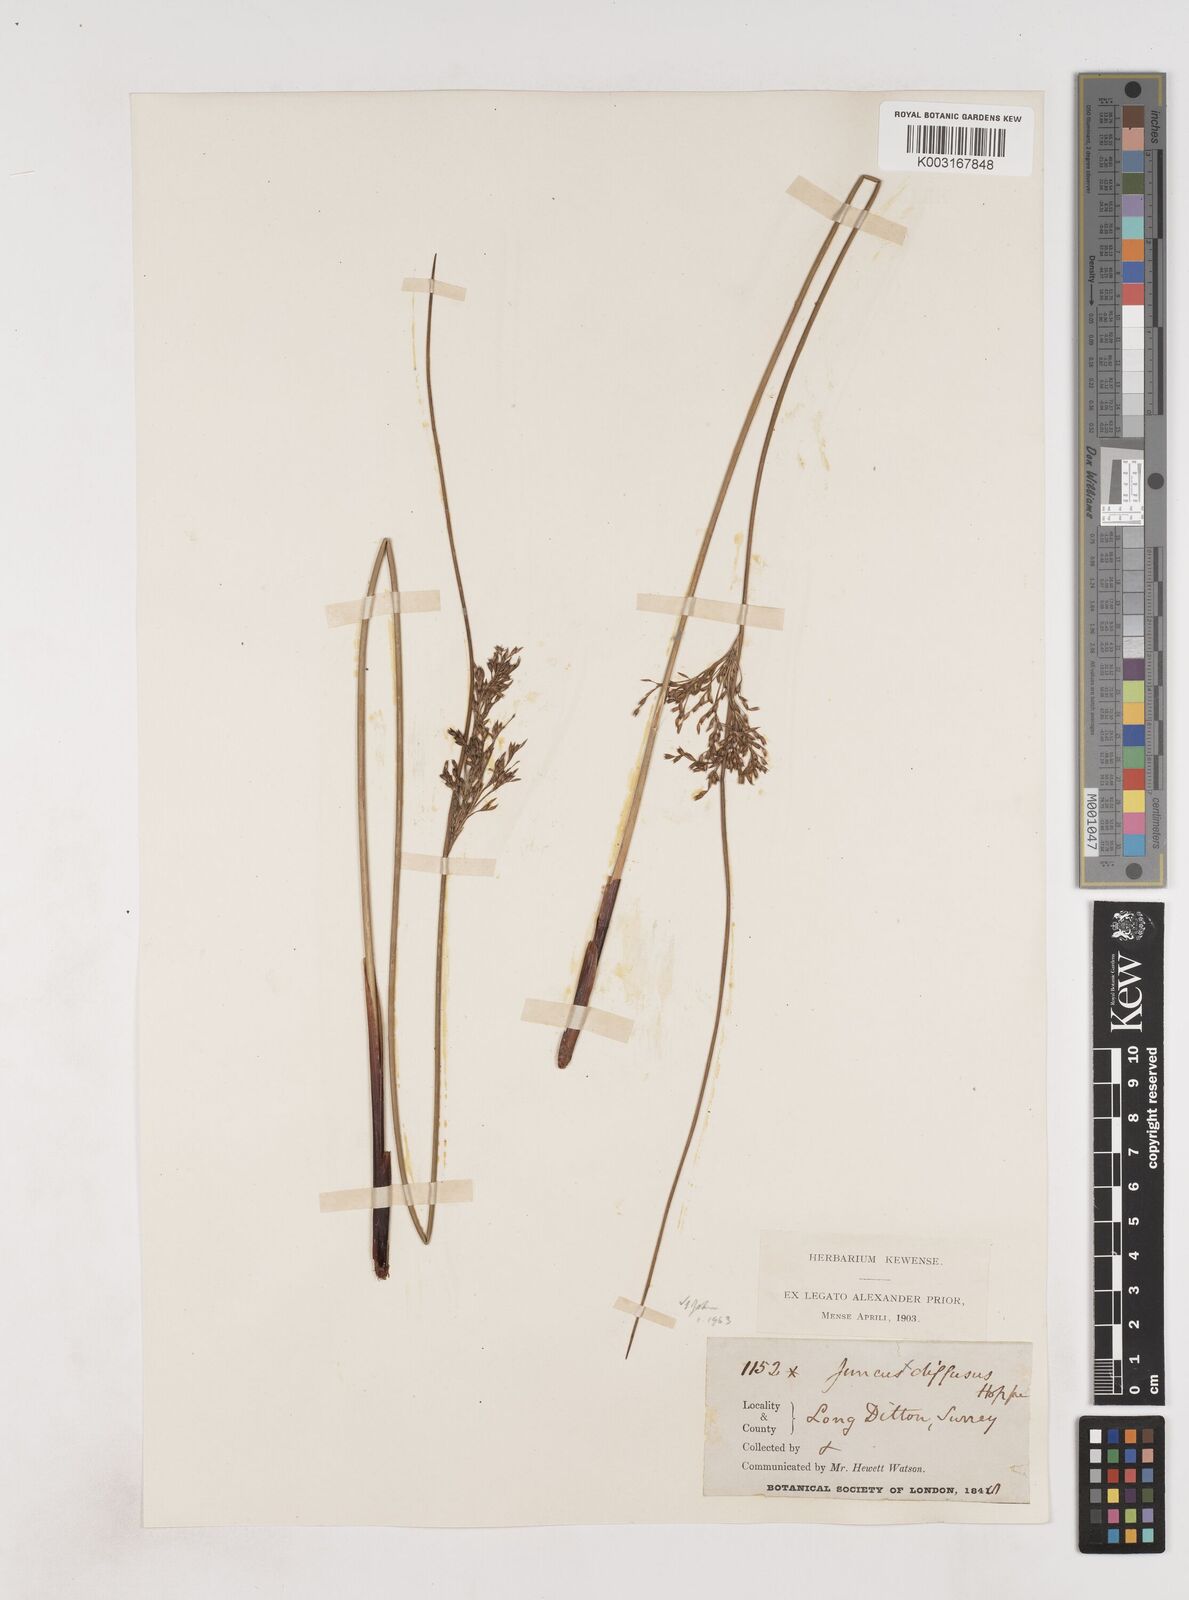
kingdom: Plantae
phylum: Tracheophyta
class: Liliopsida
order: Poales
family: Juncaceae
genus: Juncus
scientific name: Juncus effusus
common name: Soft rush
